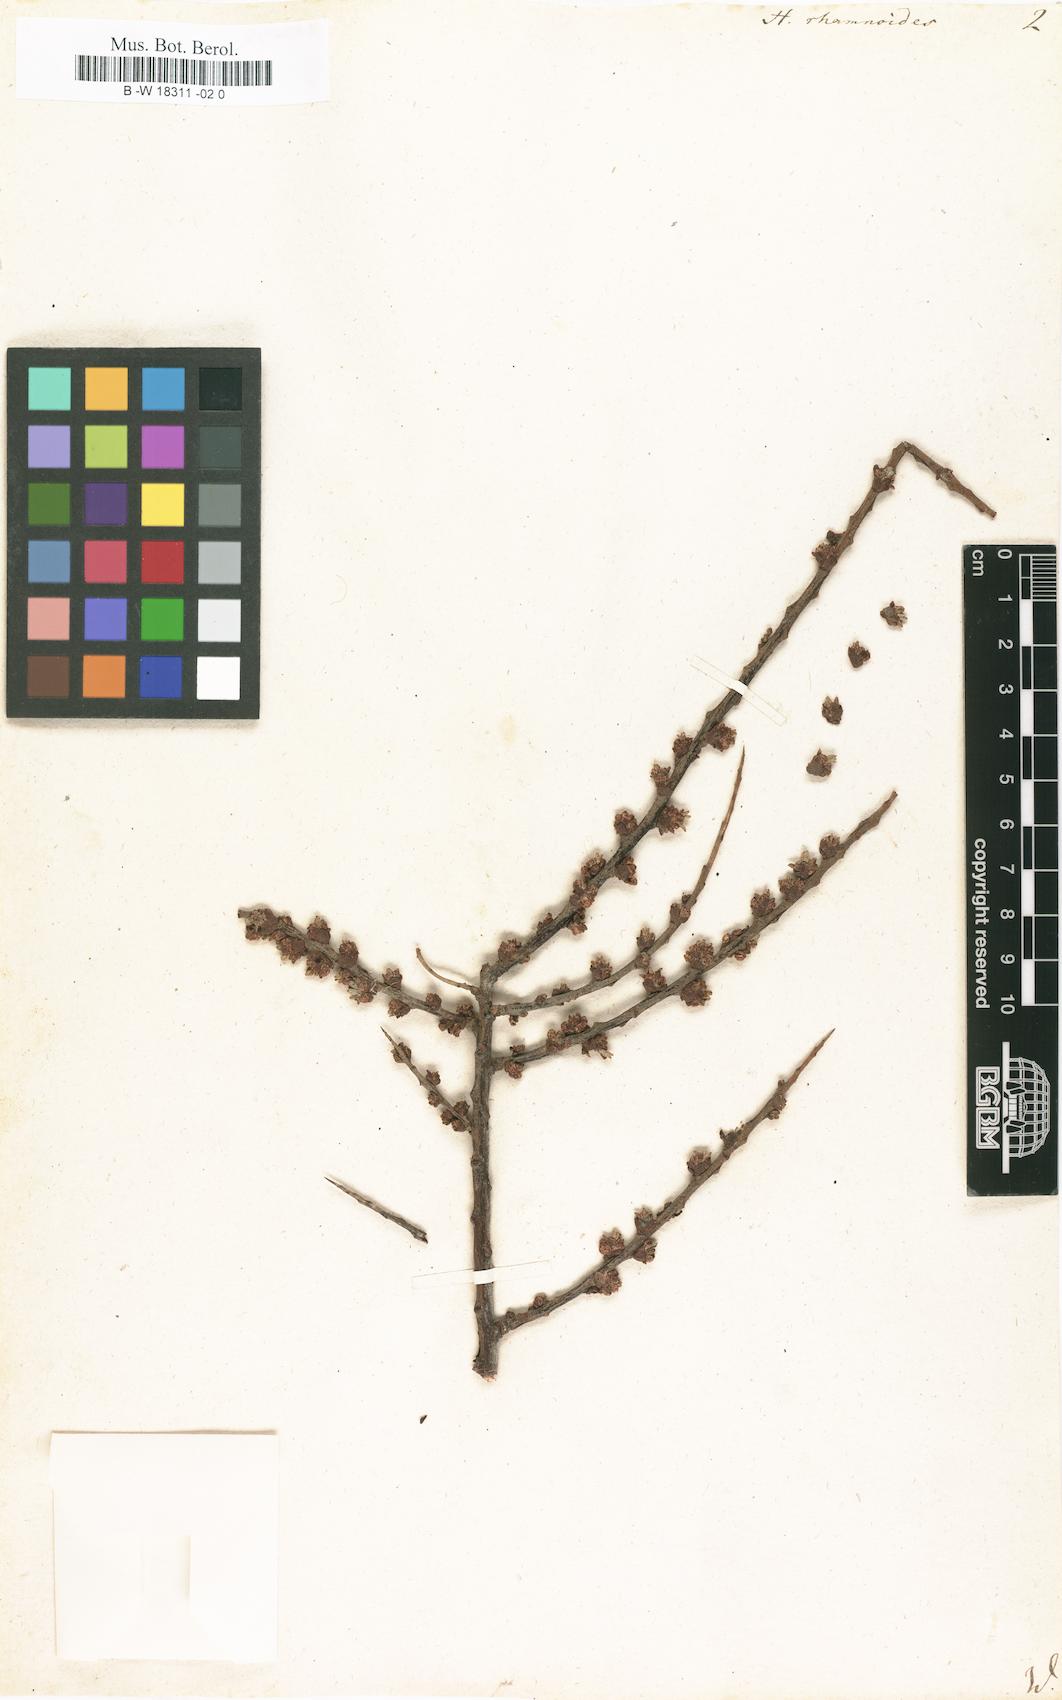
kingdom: Plantae
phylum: Tracheophyta
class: Magnoliopsida
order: Rosales
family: Elaeagnaceae
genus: Hippophae
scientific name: Hippophae rhamnoides
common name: Sea-buckthorn
